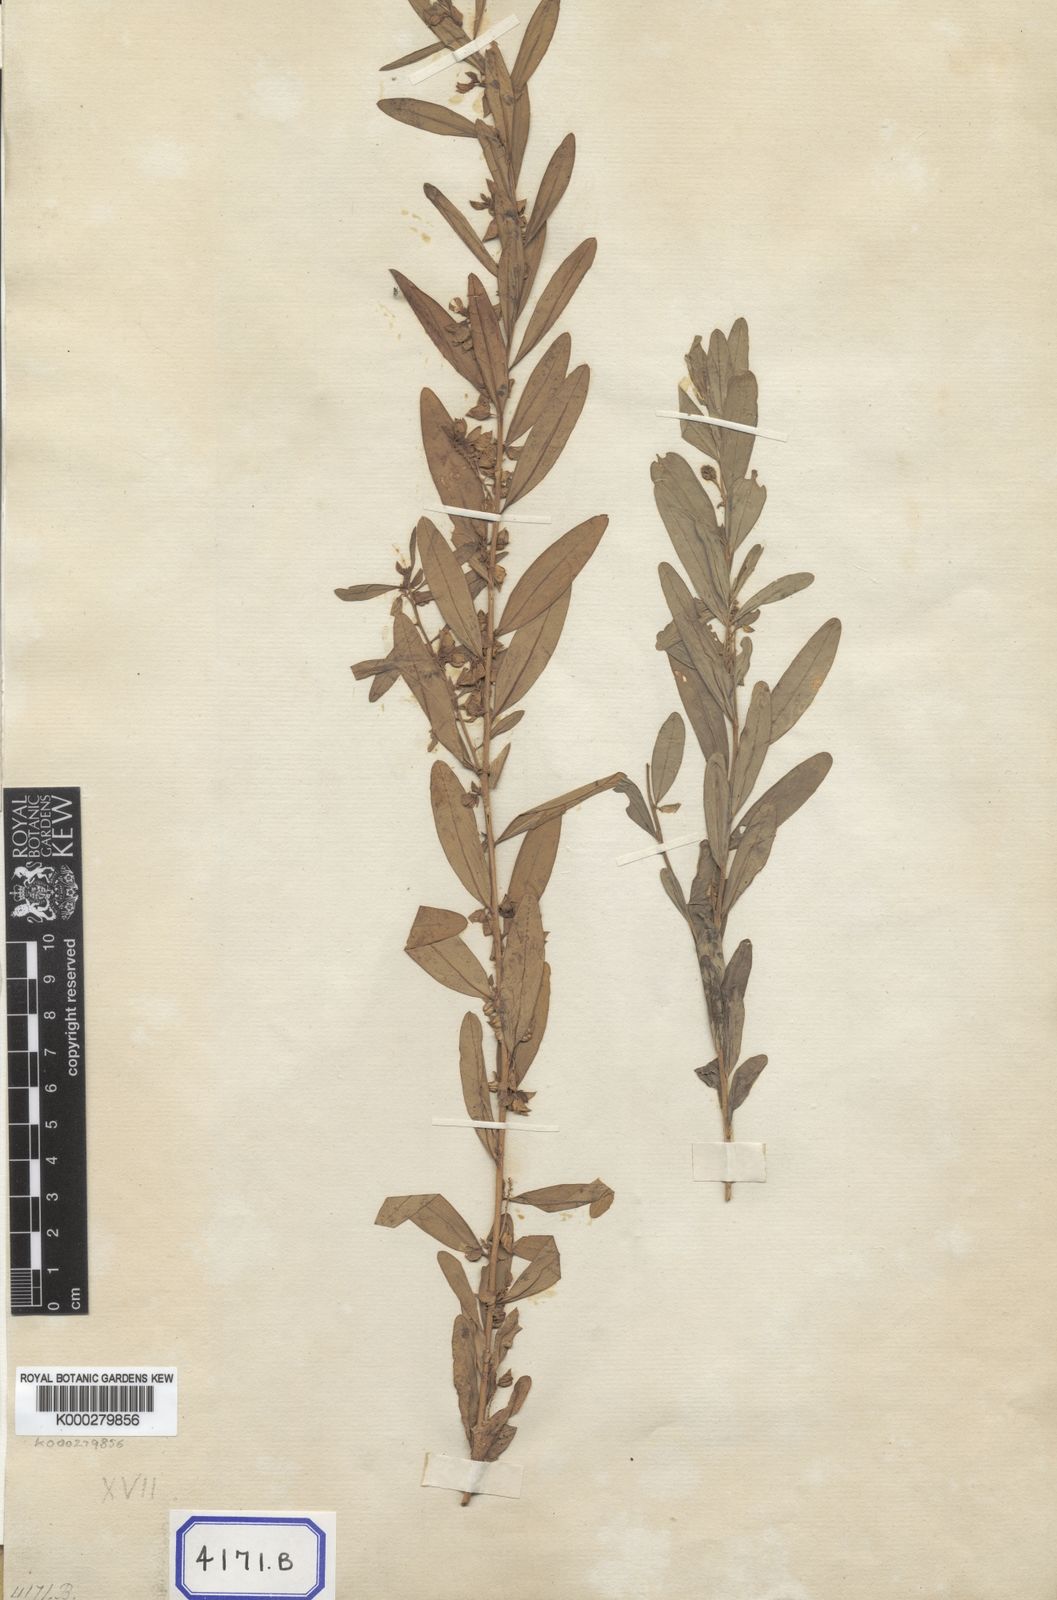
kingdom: Plantae
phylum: Tracheophyta
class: Magnoliopsida
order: Fabales
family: Polygalaceae
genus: Polygala
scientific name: Polygala glaucoides
